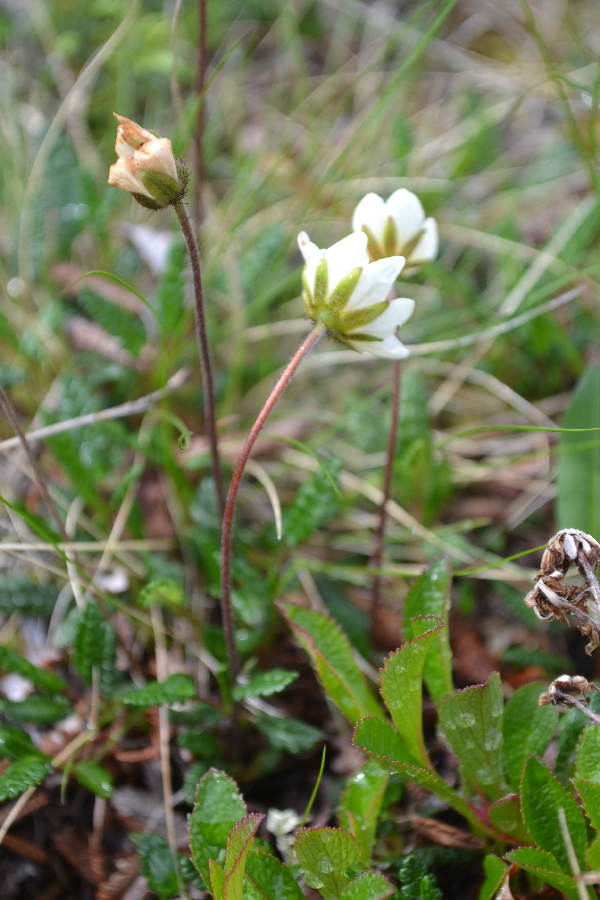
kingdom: Plantae
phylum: Tracheophyta
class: Magnoliopsida
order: Rosales
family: Rosaceae
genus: Dryas
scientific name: Dryas octopetala
